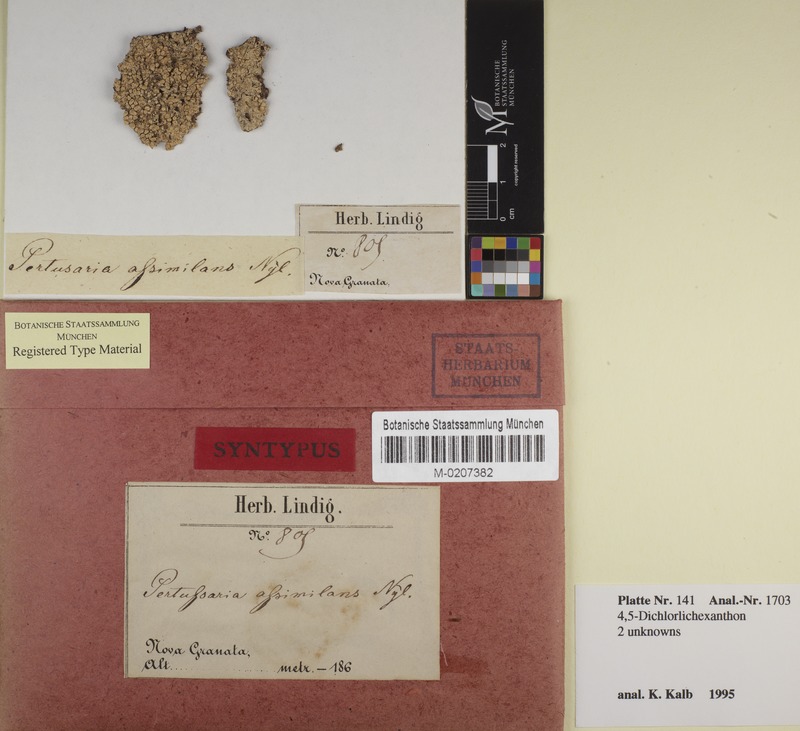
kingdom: Fungi
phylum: Ascomycota
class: Lecanoromycetes
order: Pertusariales
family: Pertusariaceae
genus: Pertusaria
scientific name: Pertusaria assimilans
